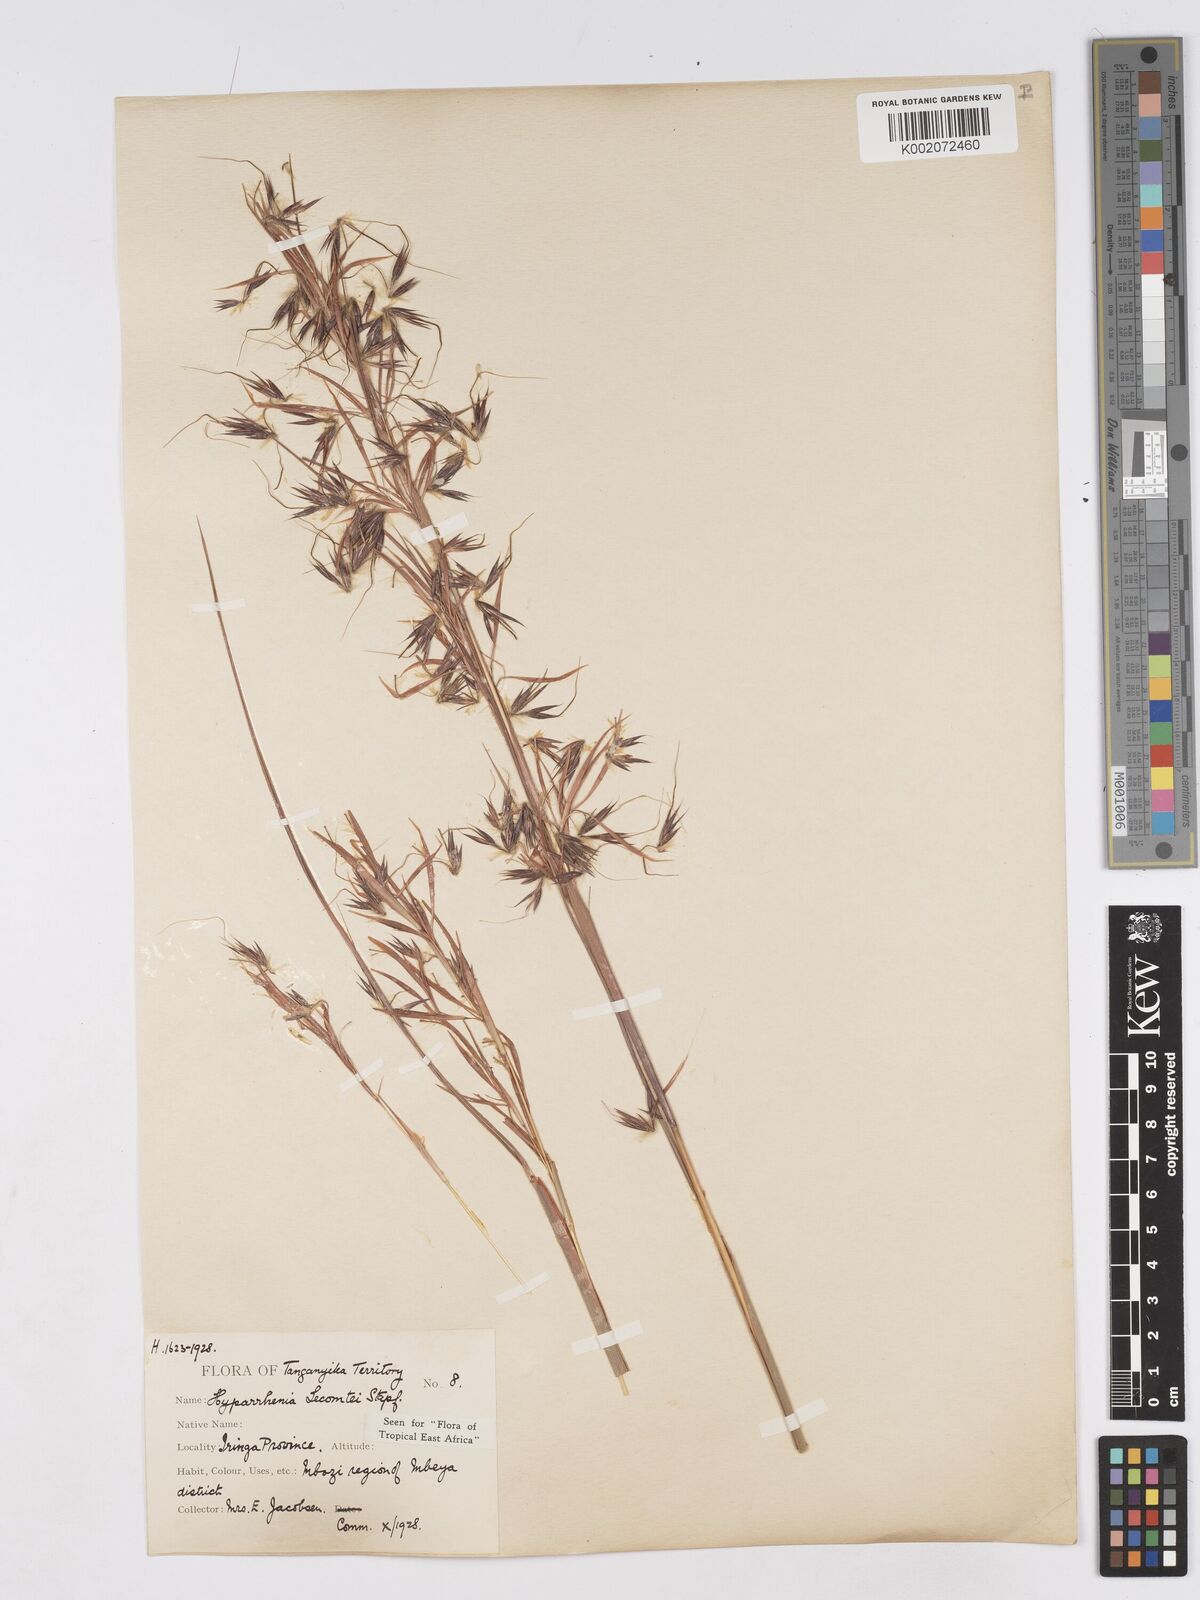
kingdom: Plantae
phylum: Tracheophyta
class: Liliopsida
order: Poales
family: Poaceae
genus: Hyparrhenia
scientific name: Hyparrhenia newtonii
